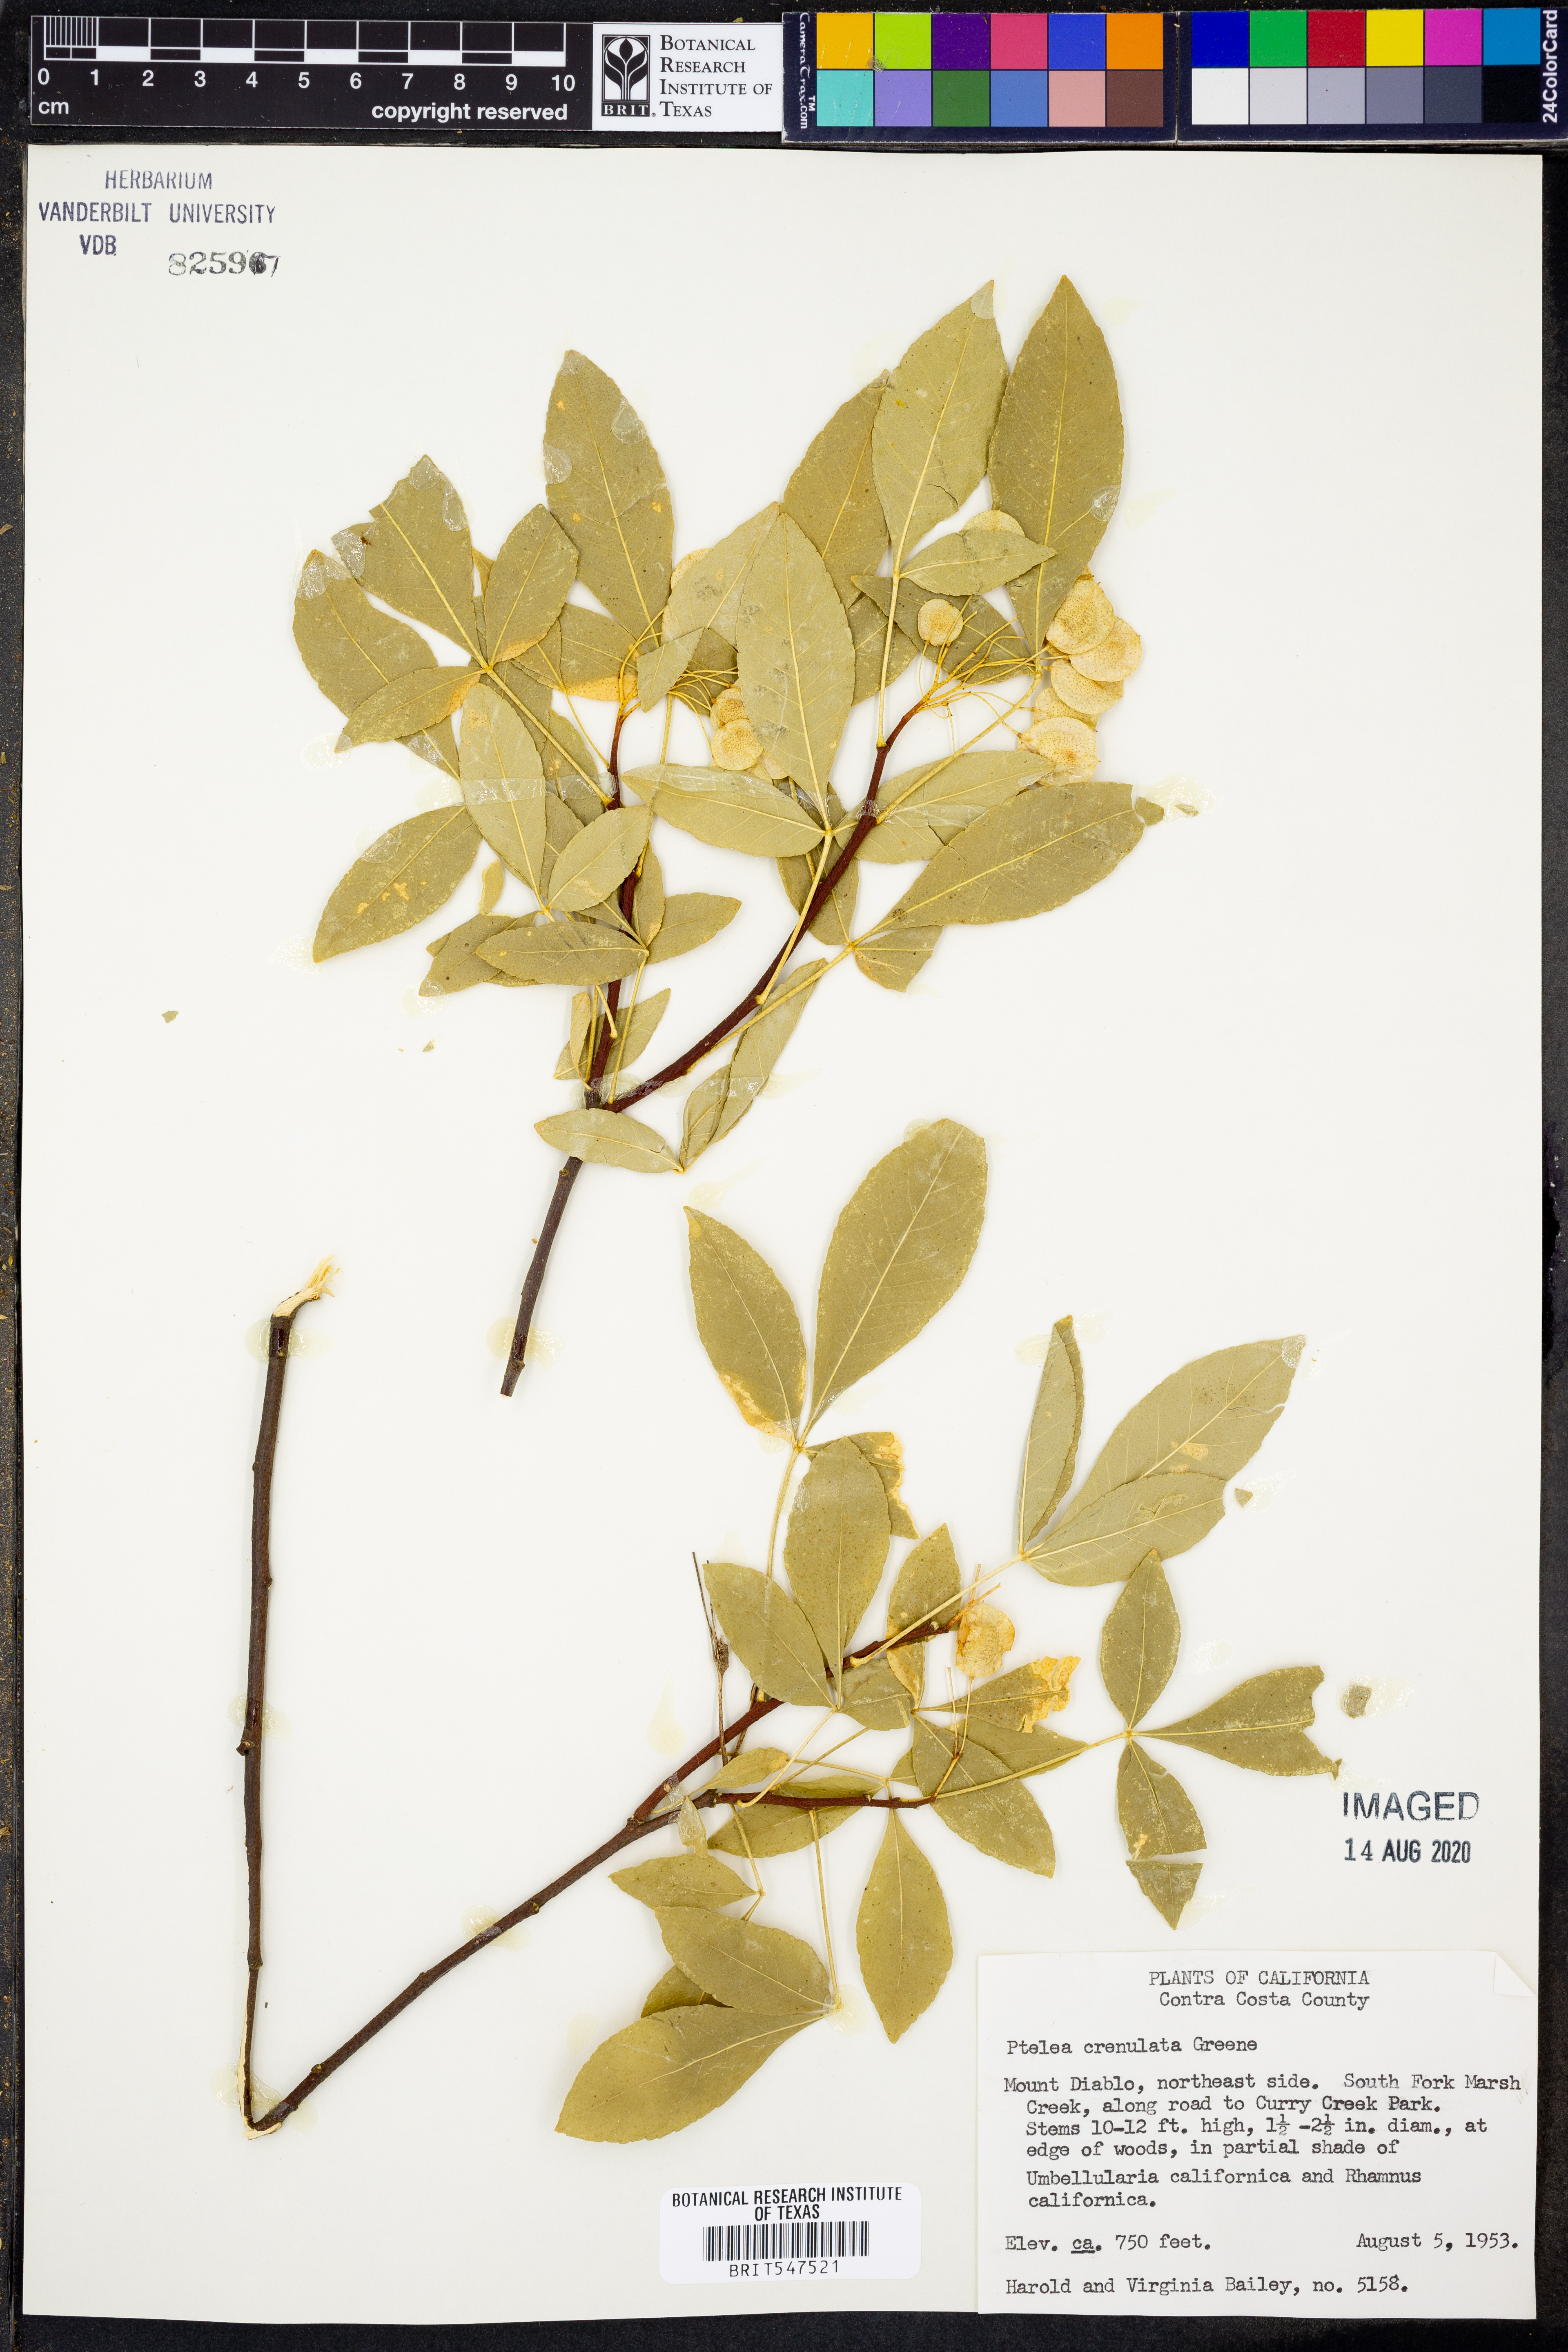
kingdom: Plantae
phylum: Tracheophyta
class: Magnoliopsida
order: Sapindales
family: Rutaceae
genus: Ptelea
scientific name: Ptelea crenulata
